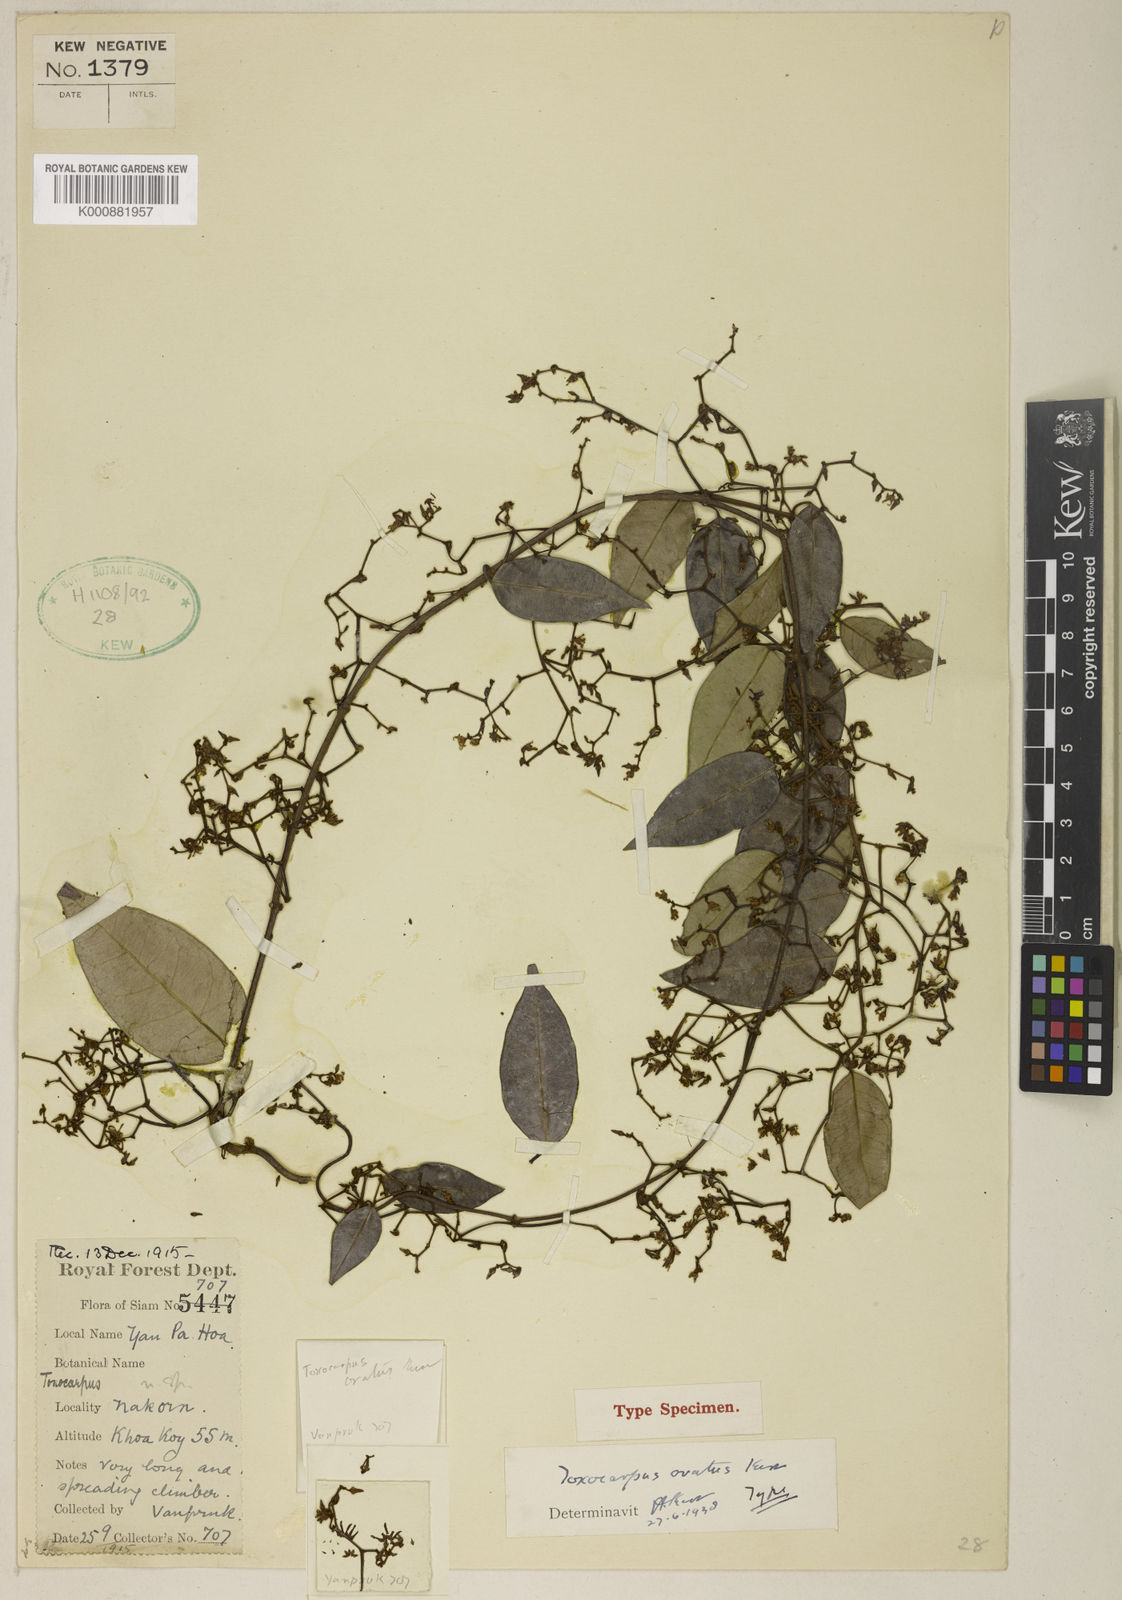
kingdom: Plantae
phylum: Tracheophyta
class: Magnoliopsida
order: Gentianales
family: Apocynaceae
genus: Secamone
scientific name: Secamone
